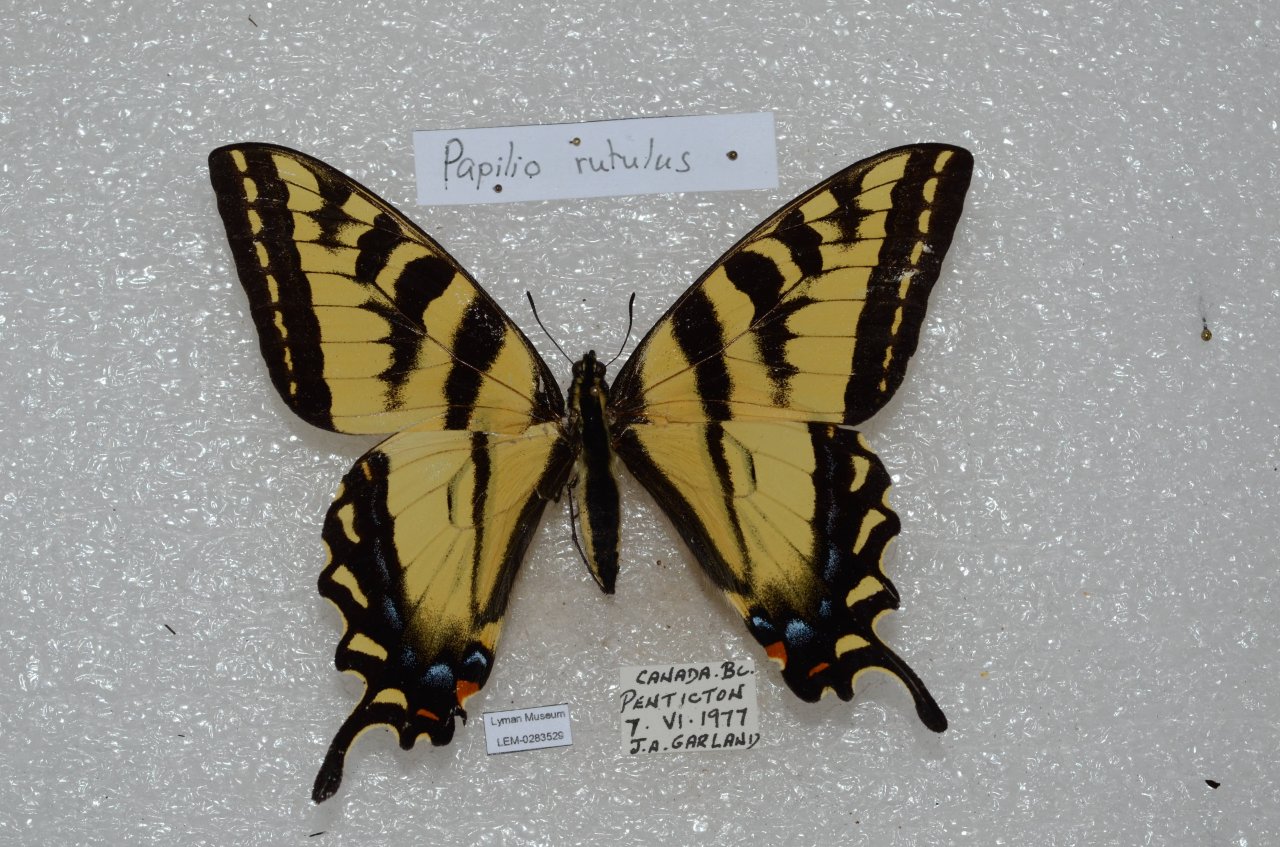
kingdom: Animalia
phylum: Arthropoda
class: Insecta
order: Lepidoptera
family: Papilionidae
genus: Pterourus
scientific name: Pterourus rutulus
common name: Western Tiger Swallowtail
